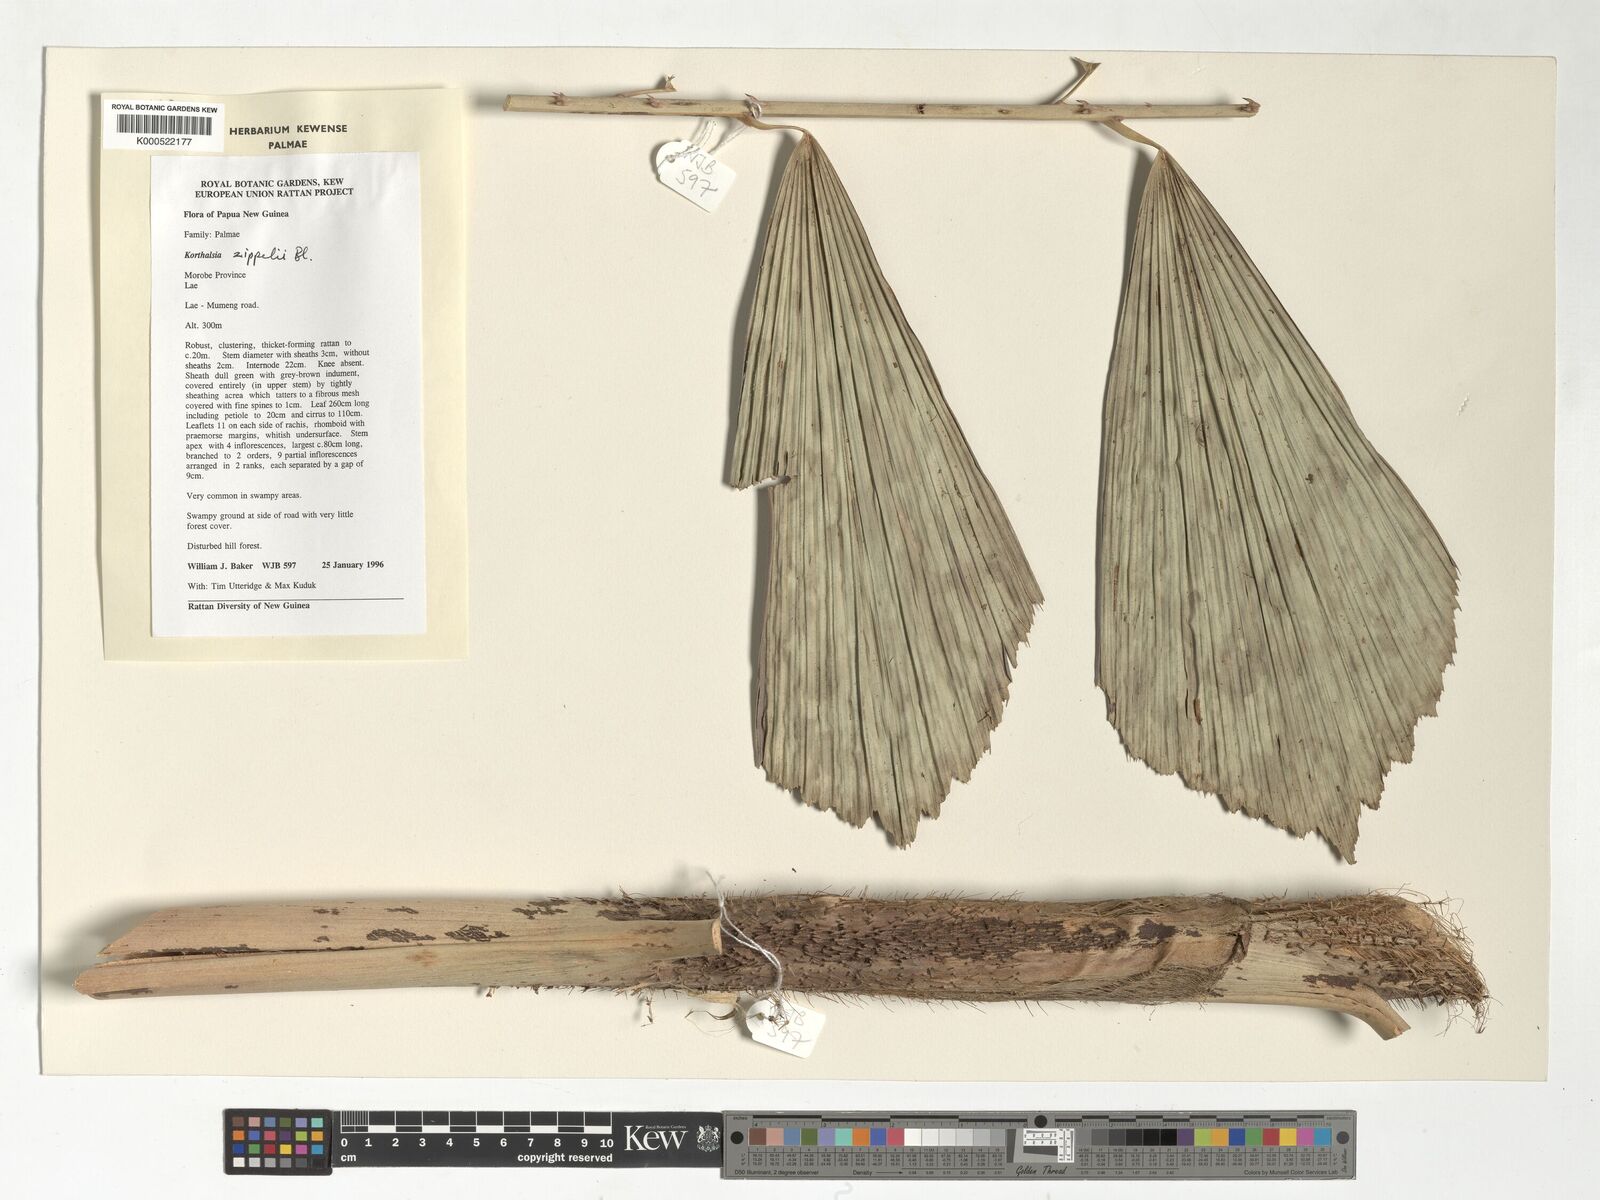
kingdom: Plantae
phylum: Tracheophyta
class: Liliopsida
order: Arecales
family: Arecaceae
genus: Korthalsia
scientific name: Korthalsia zippelii
